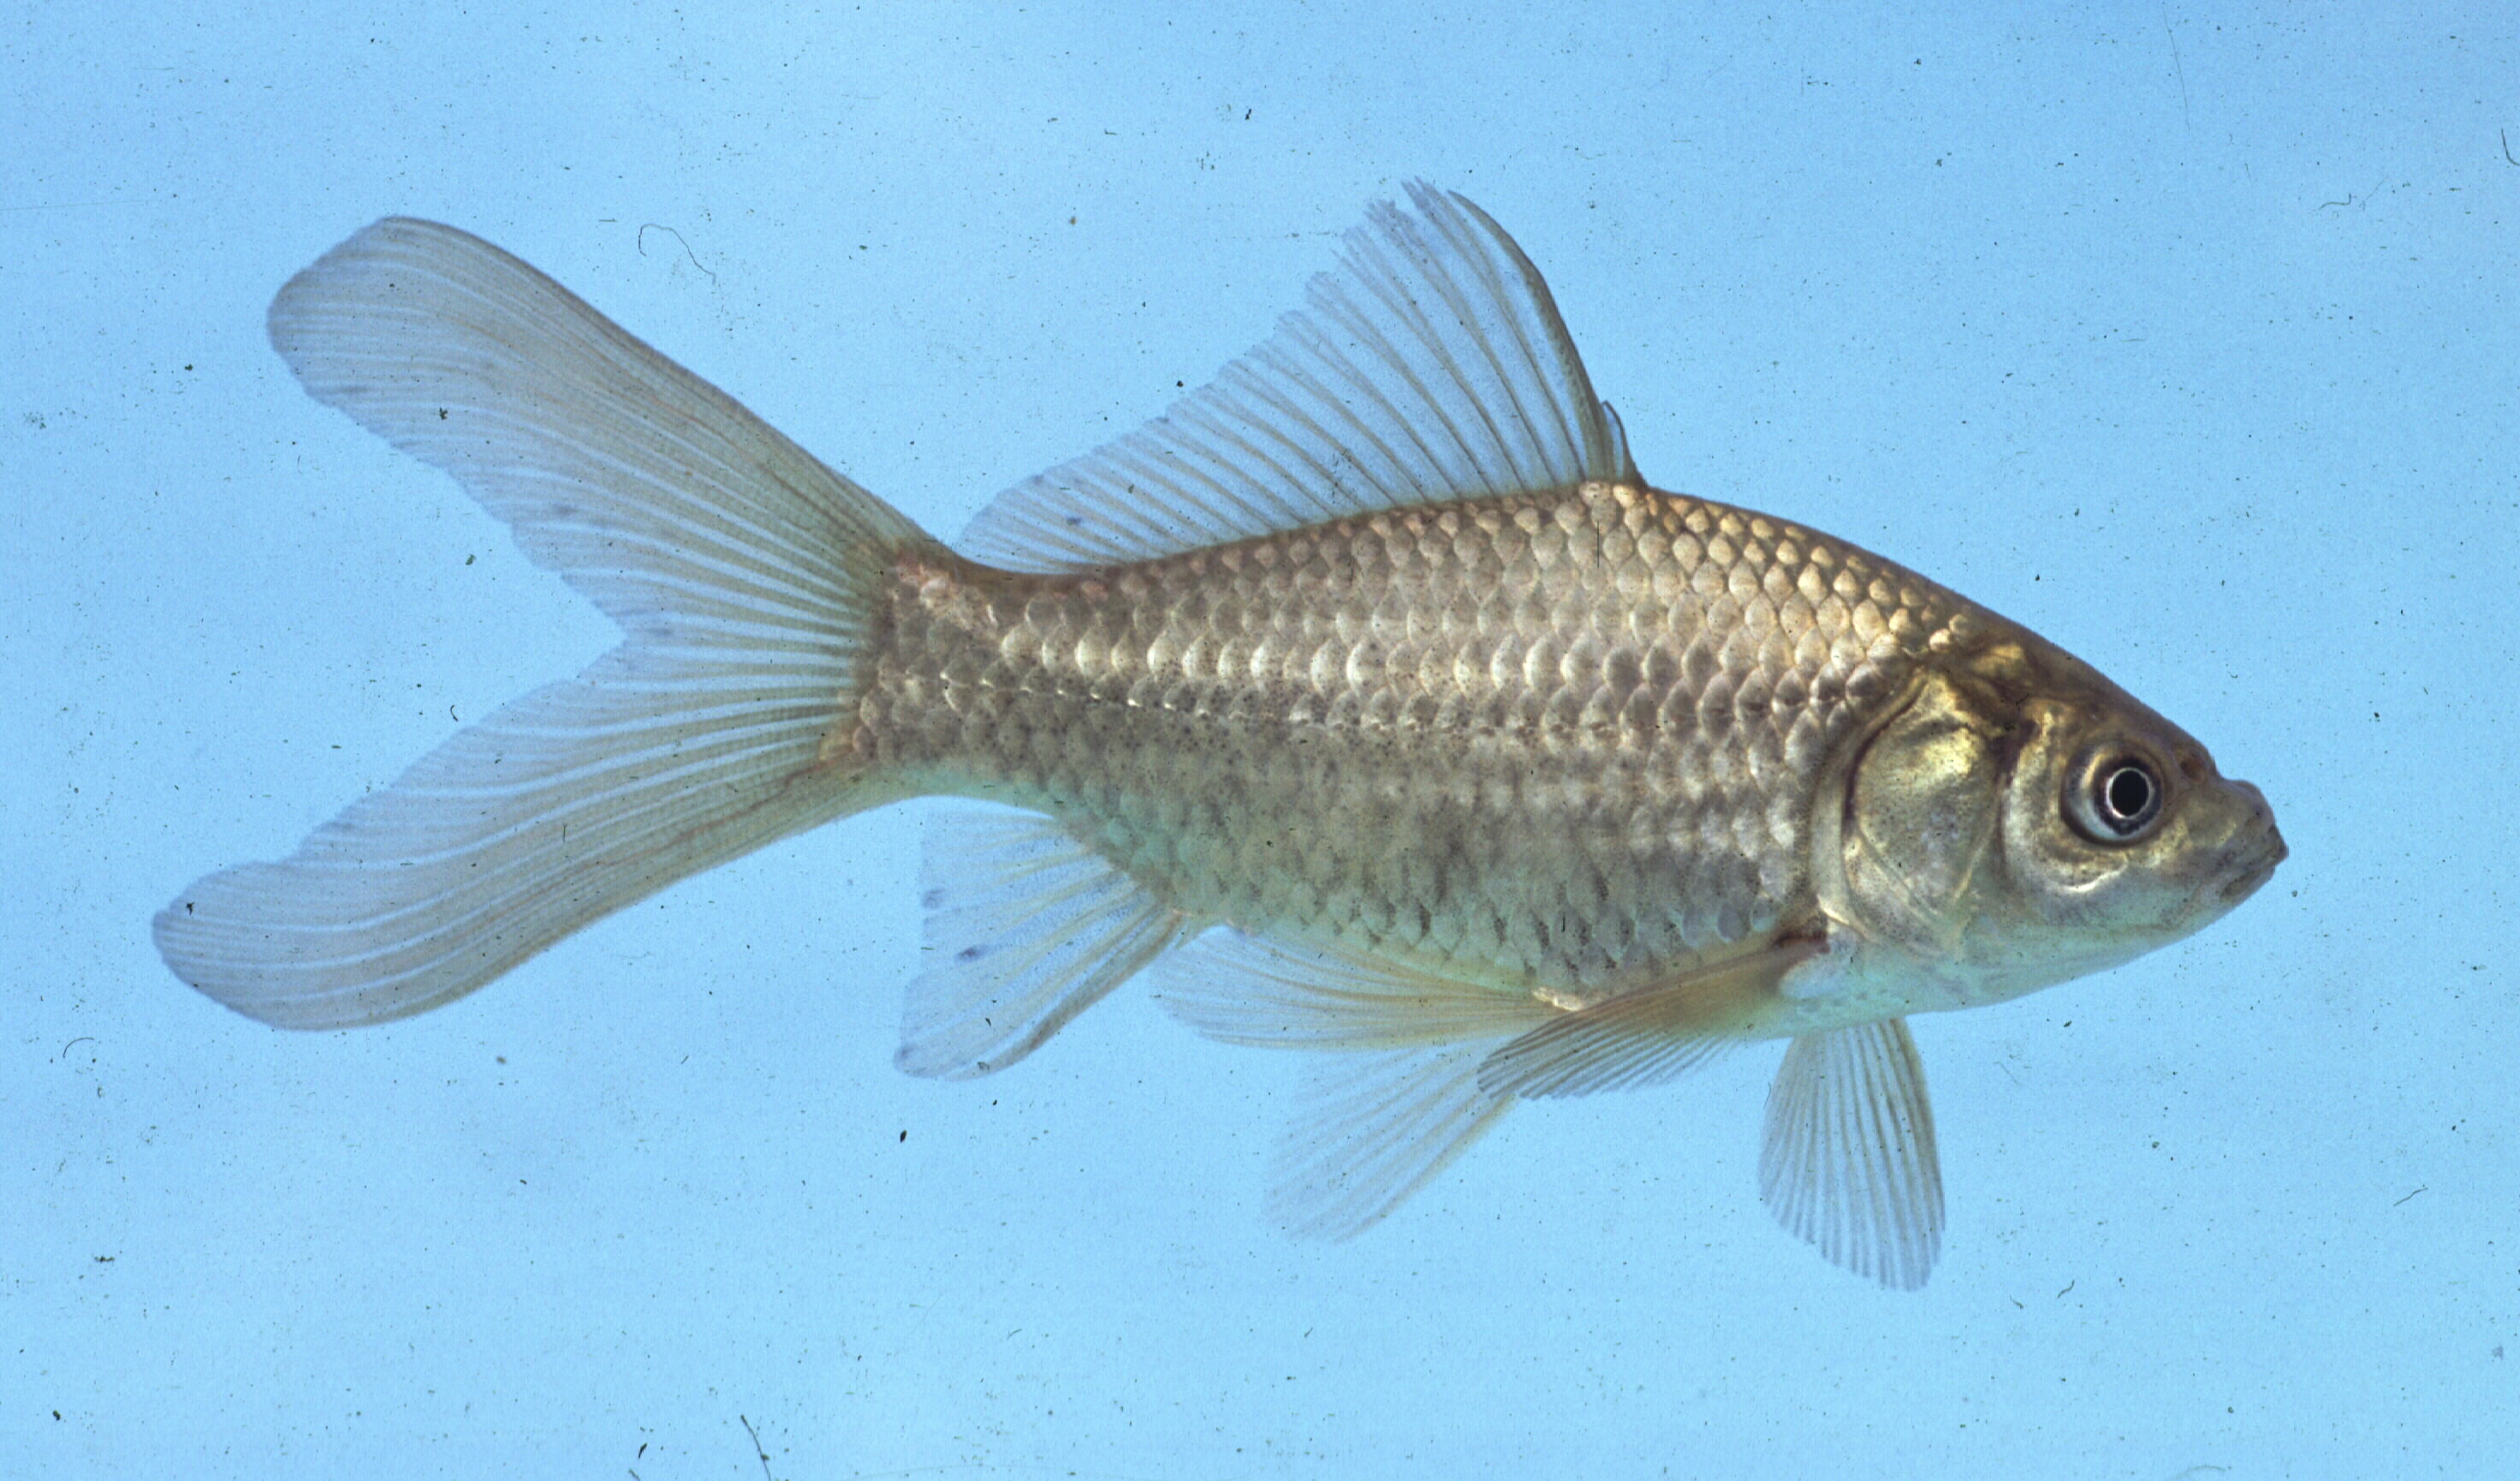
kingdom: Animalia
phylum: Chordata
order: Cypriniformes
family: Cyprinidae
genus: Carassius
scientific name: Carassius auratus
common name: Goldfish
